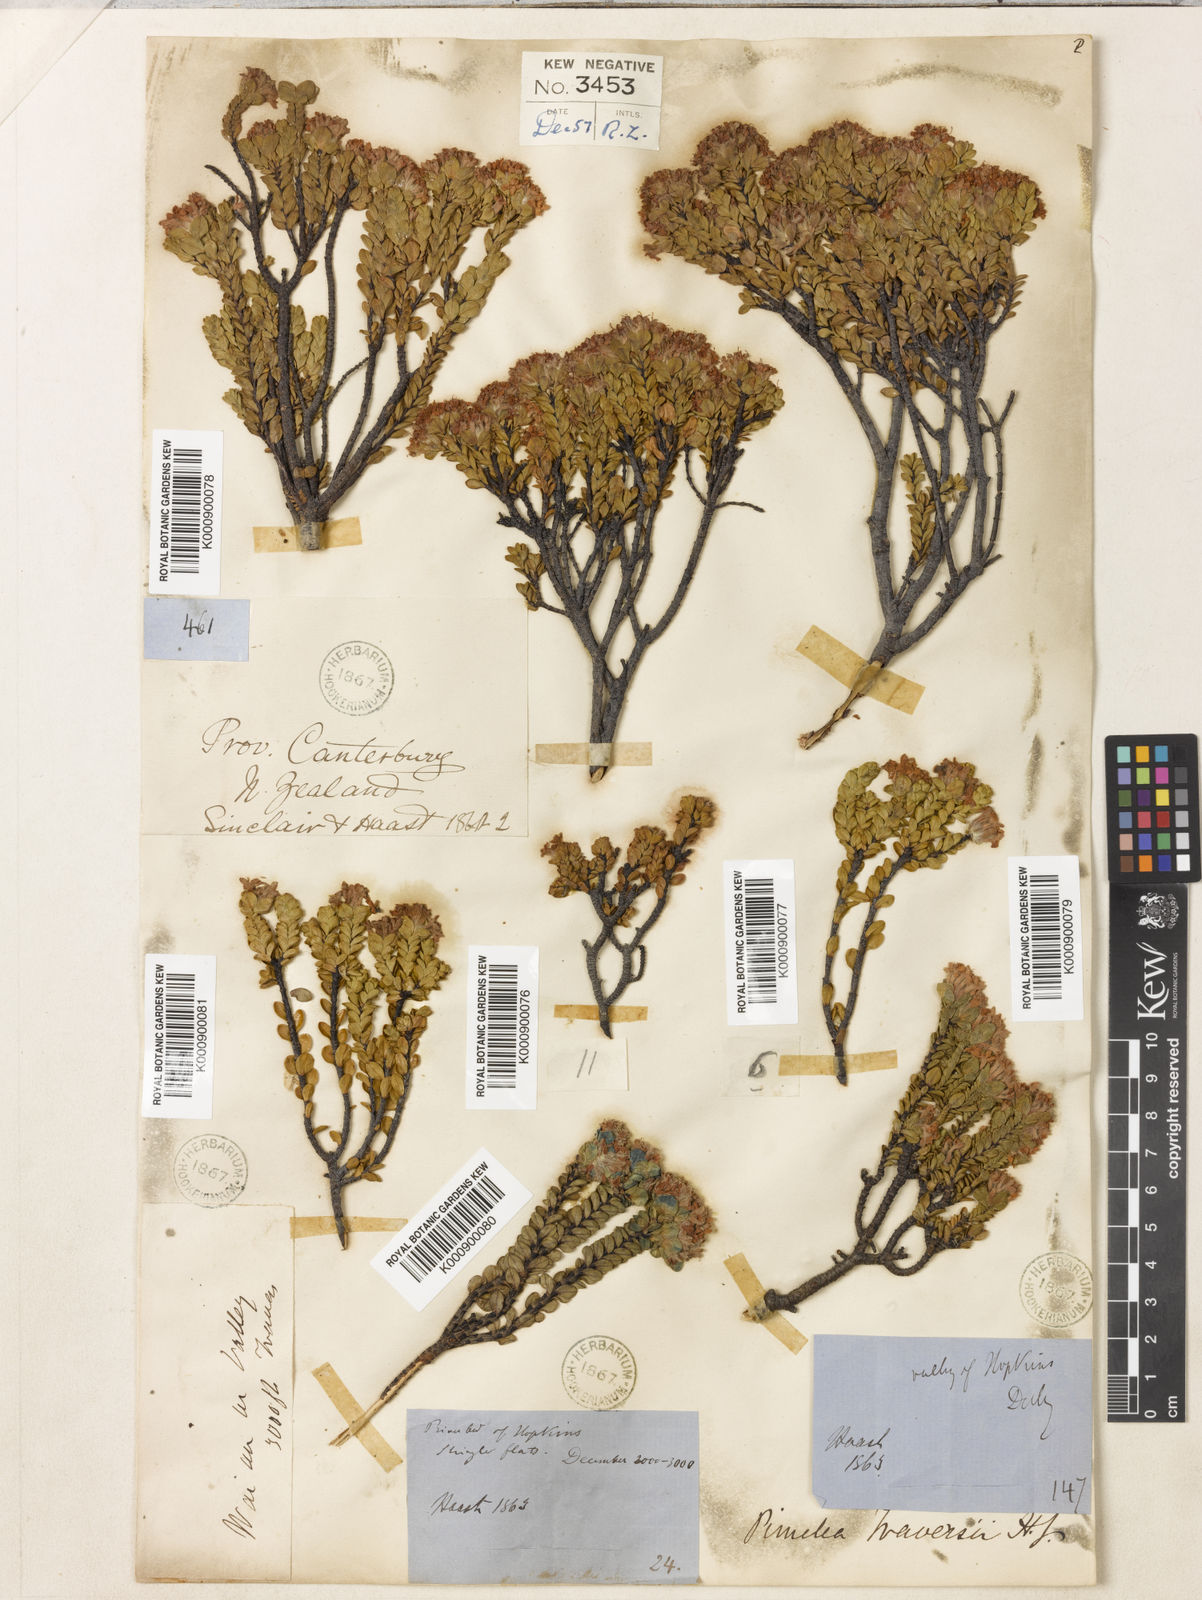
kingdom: Plantae
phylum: Tracheophyta
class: Magnoliopsida
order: Malvales
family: Thymelaeaceae
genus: Pimelea
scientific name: Pimelea traversii
